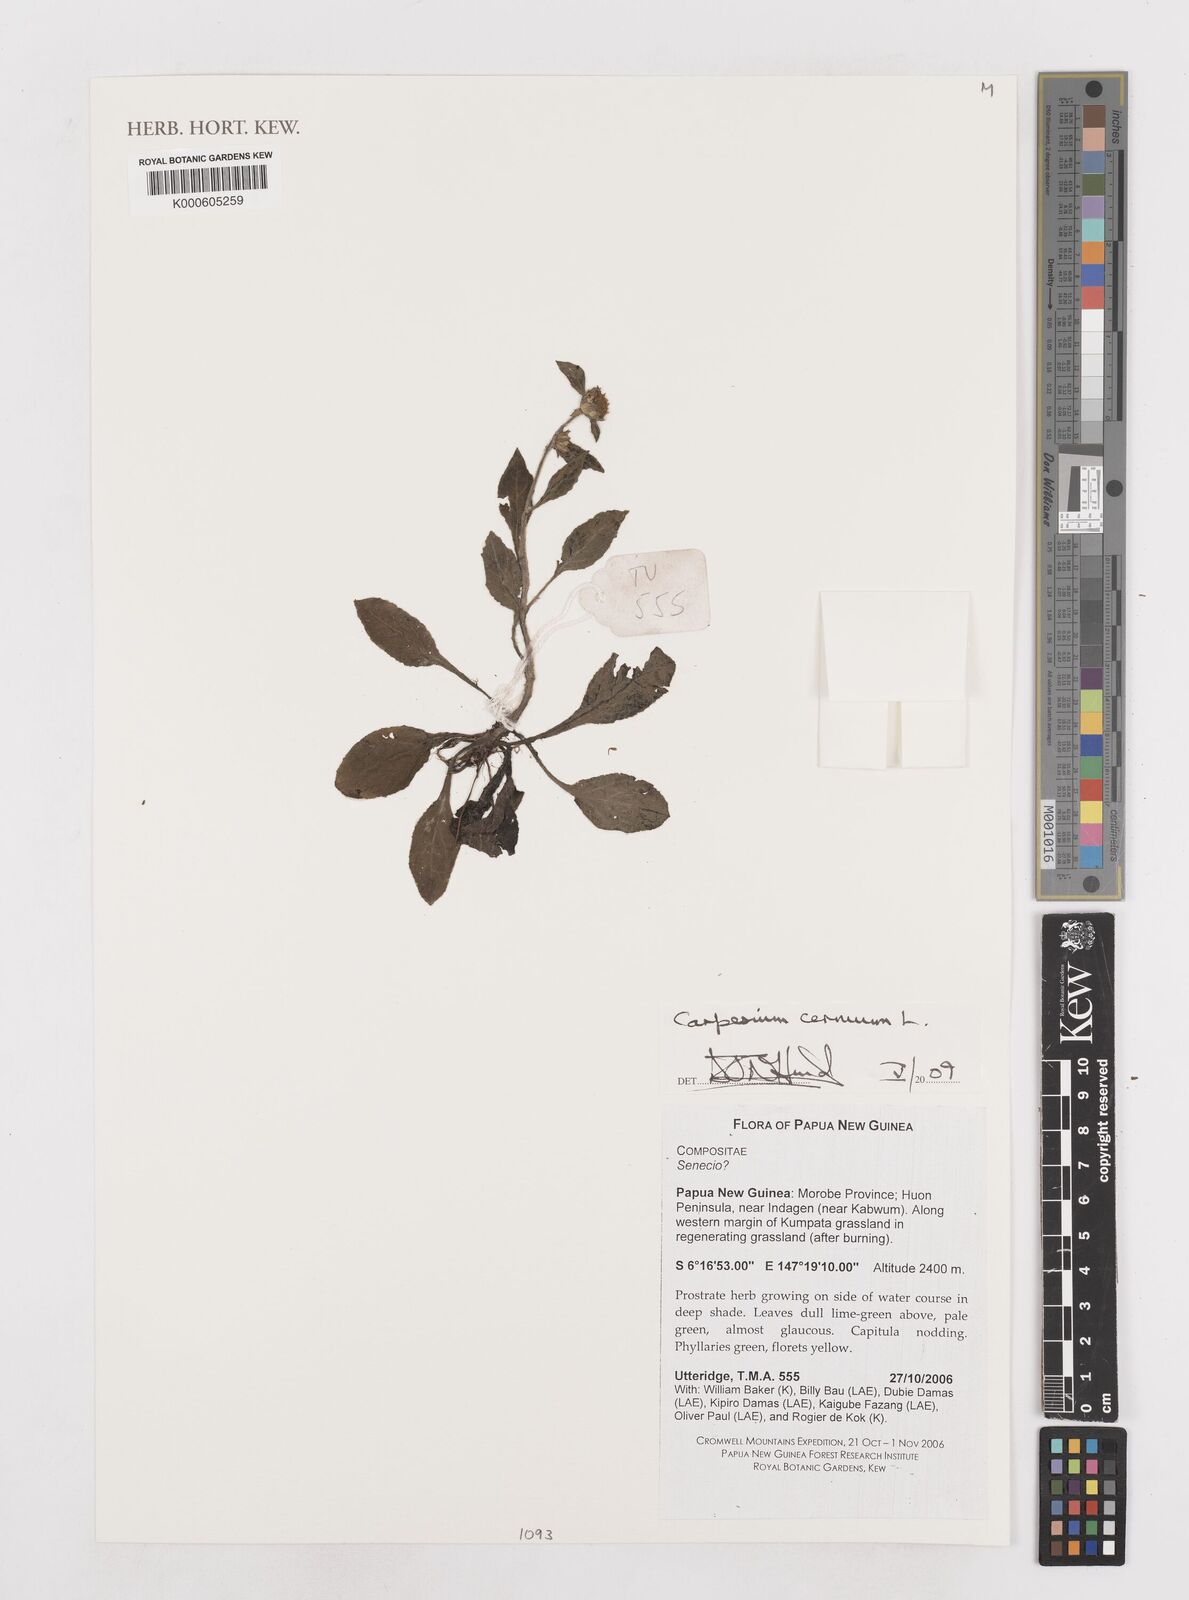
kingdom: Plantae
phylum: Tracheophyta
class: Magnoliopsida
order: Asterales
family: Asteraceae
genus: Carpesium
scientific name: Carpesium cernuum
